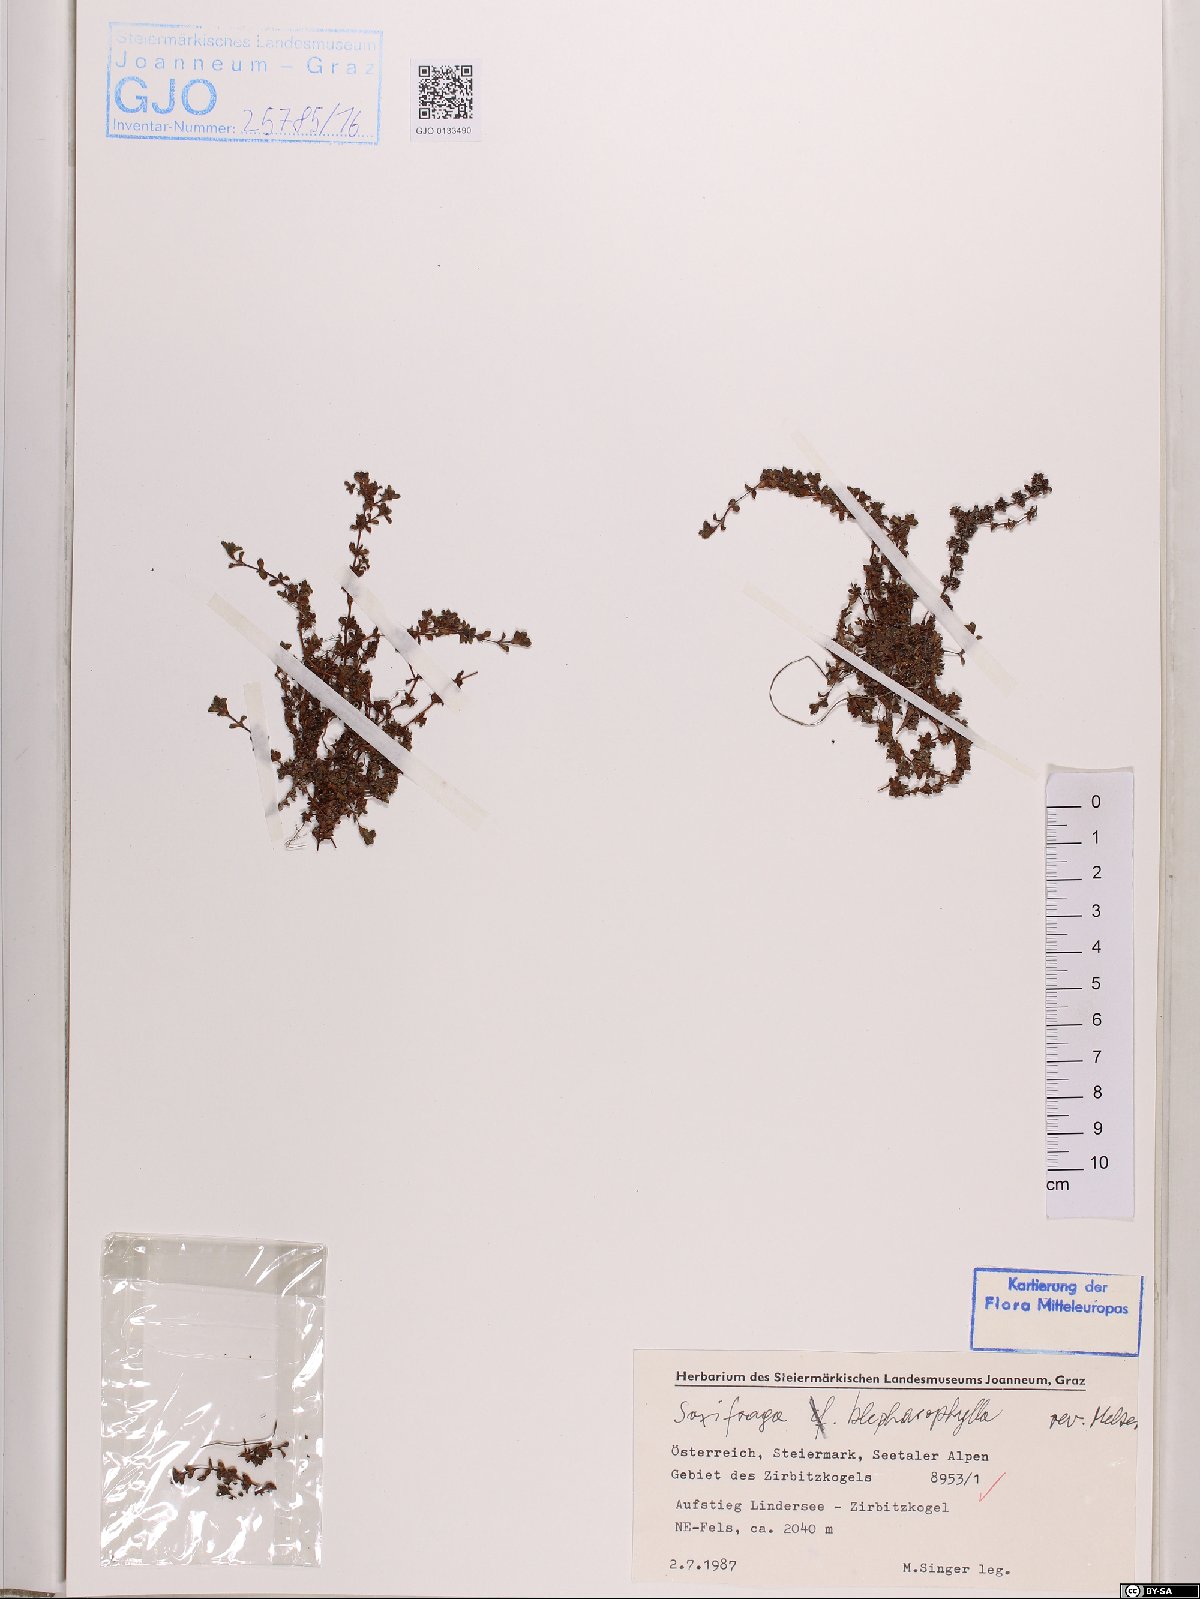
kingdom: Plantae
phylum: Tracheophyta
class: Magnoliopsida
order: Saxifragales
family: Saxifragaceae
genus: Saxifraga
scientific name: Saxifraga oppositifolia
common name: Purple saxifrage
